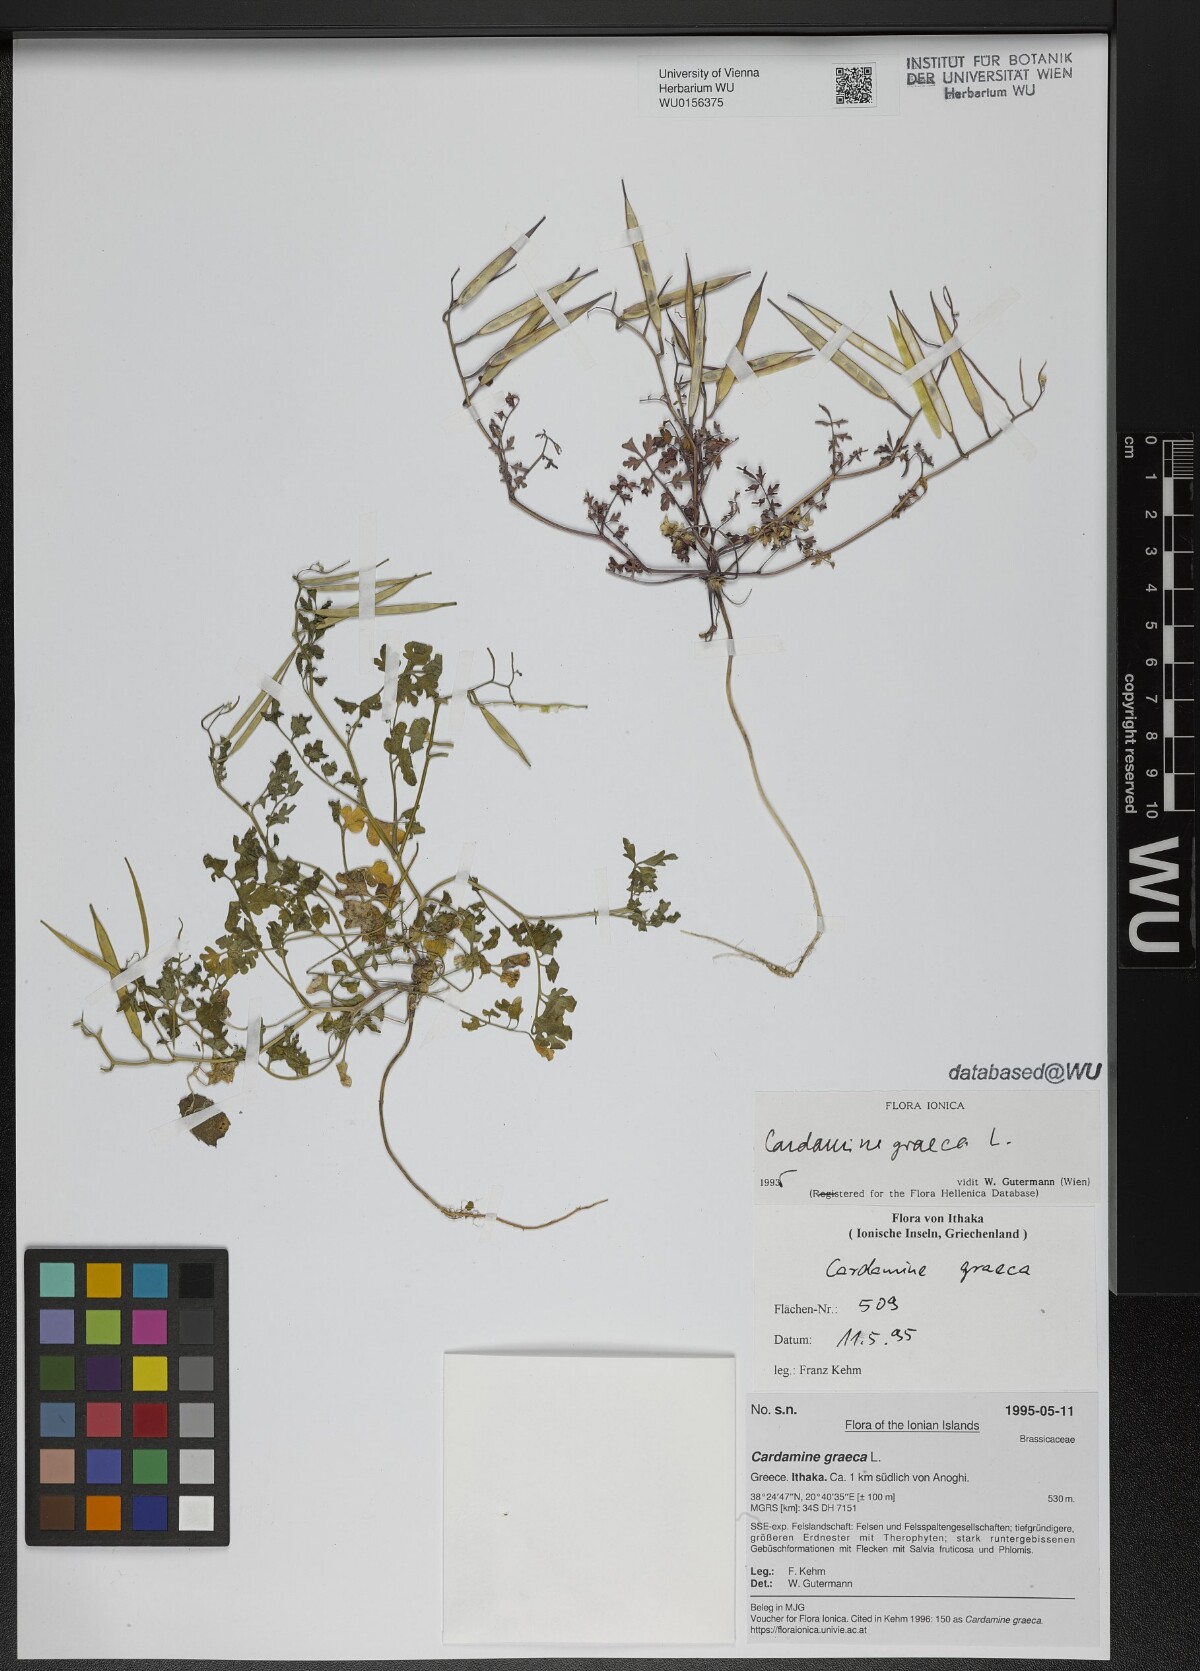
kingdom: Plantae
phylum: Tracheophyta
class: Magnoliopsida
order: Brassicales
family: Brassicaceae
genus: Cardamine
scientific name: Cardamine graeca
